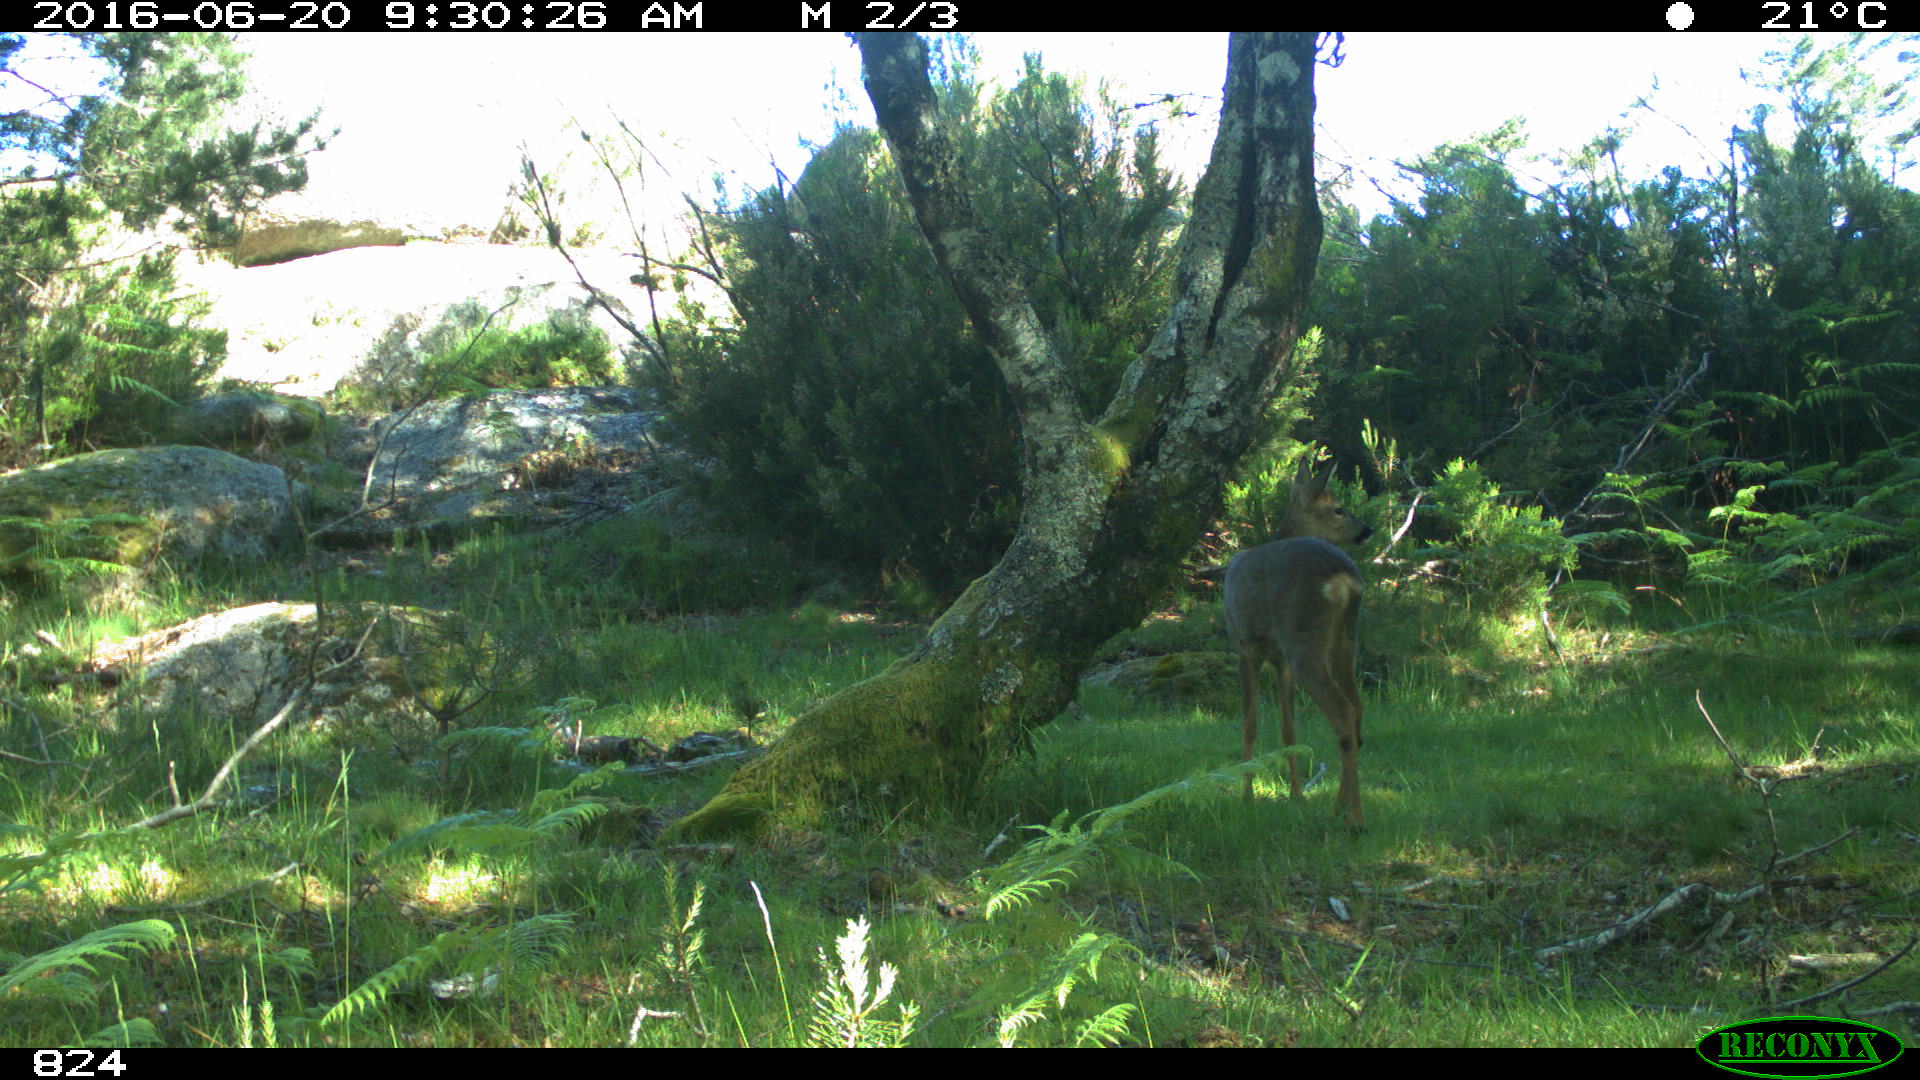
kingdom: Animalia
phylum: Chordata
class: Mammalia
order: Artiodactyla
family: Cervidae
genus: Capreolus
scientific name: Capreolus capreolus
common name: Western roe deer
